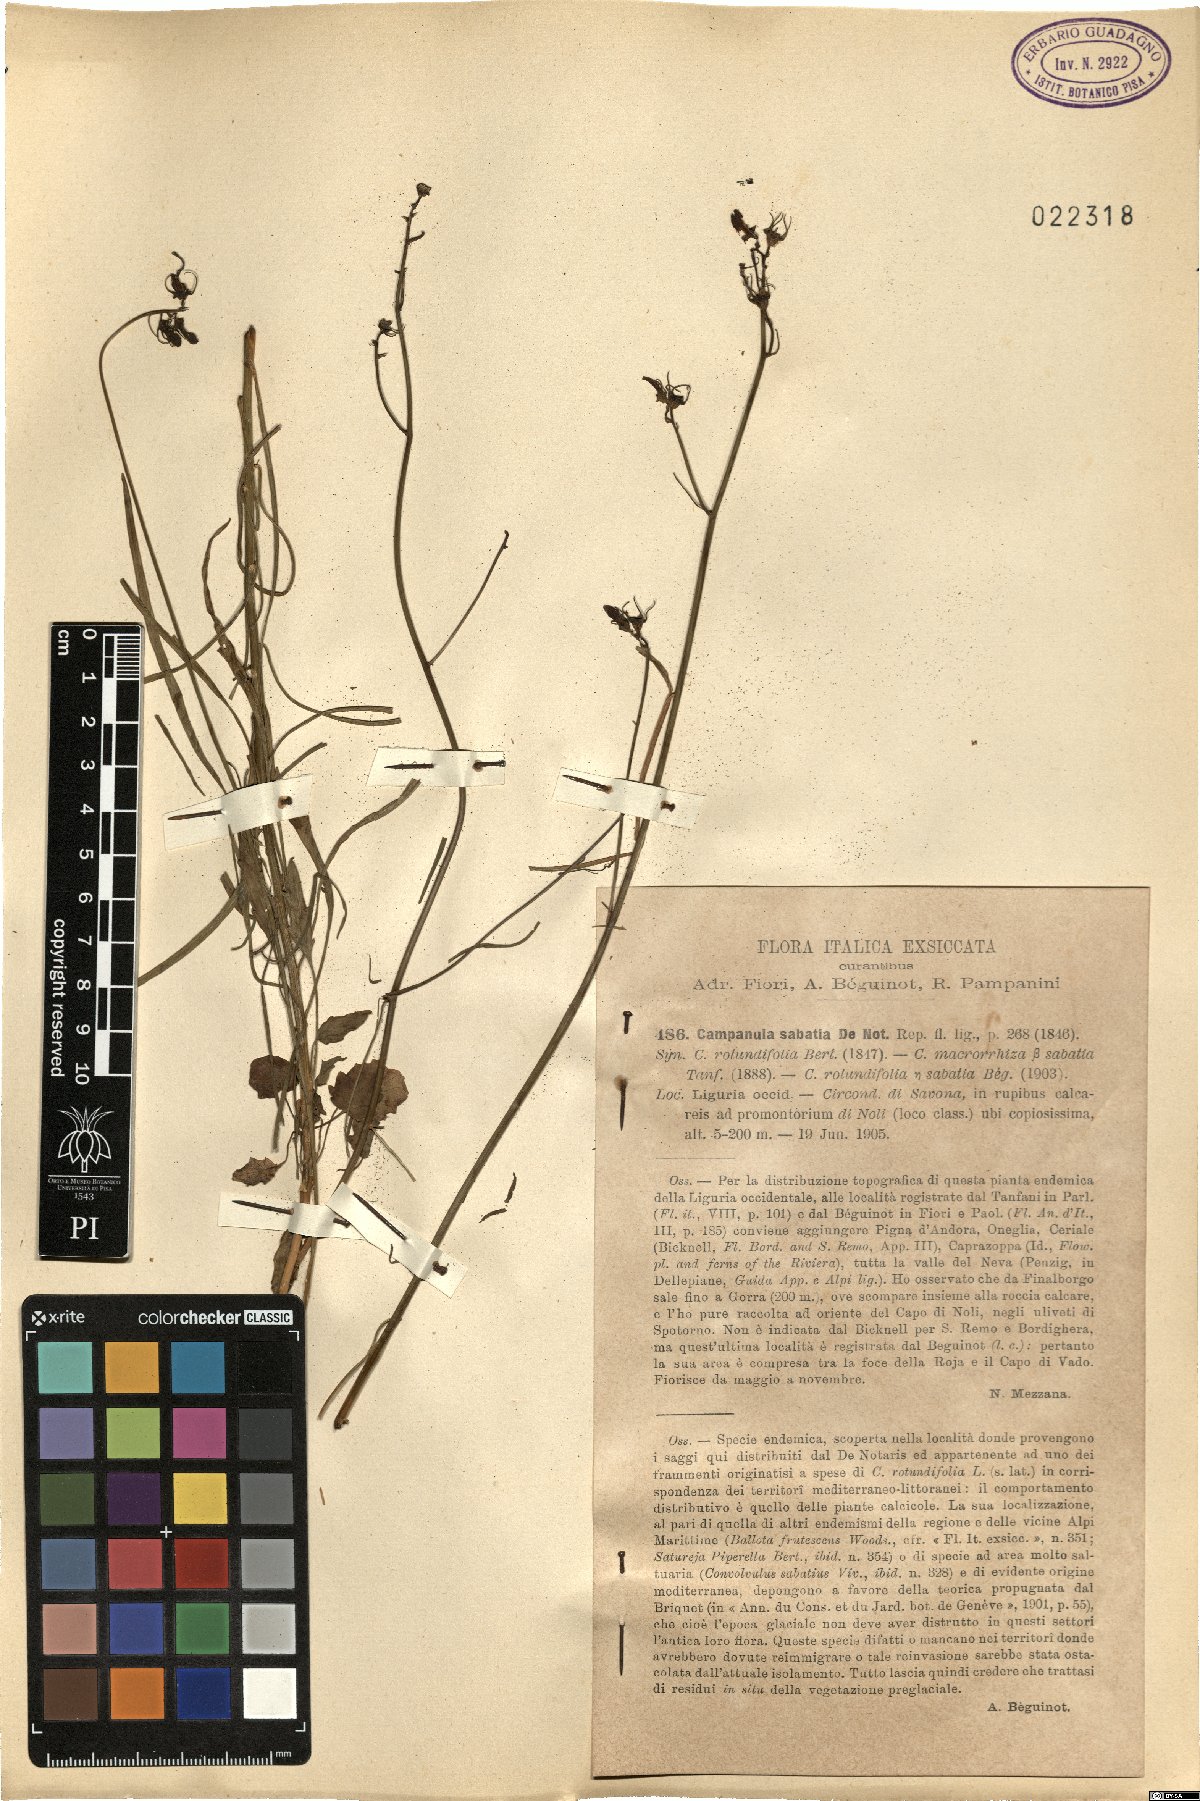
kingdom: Plantae
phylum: Tracheophyta
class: Magnoliopsida
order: Asterales
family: Campanulaceae
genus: Campanula
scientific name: Campanula sabatia
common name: Savona hare-bell
